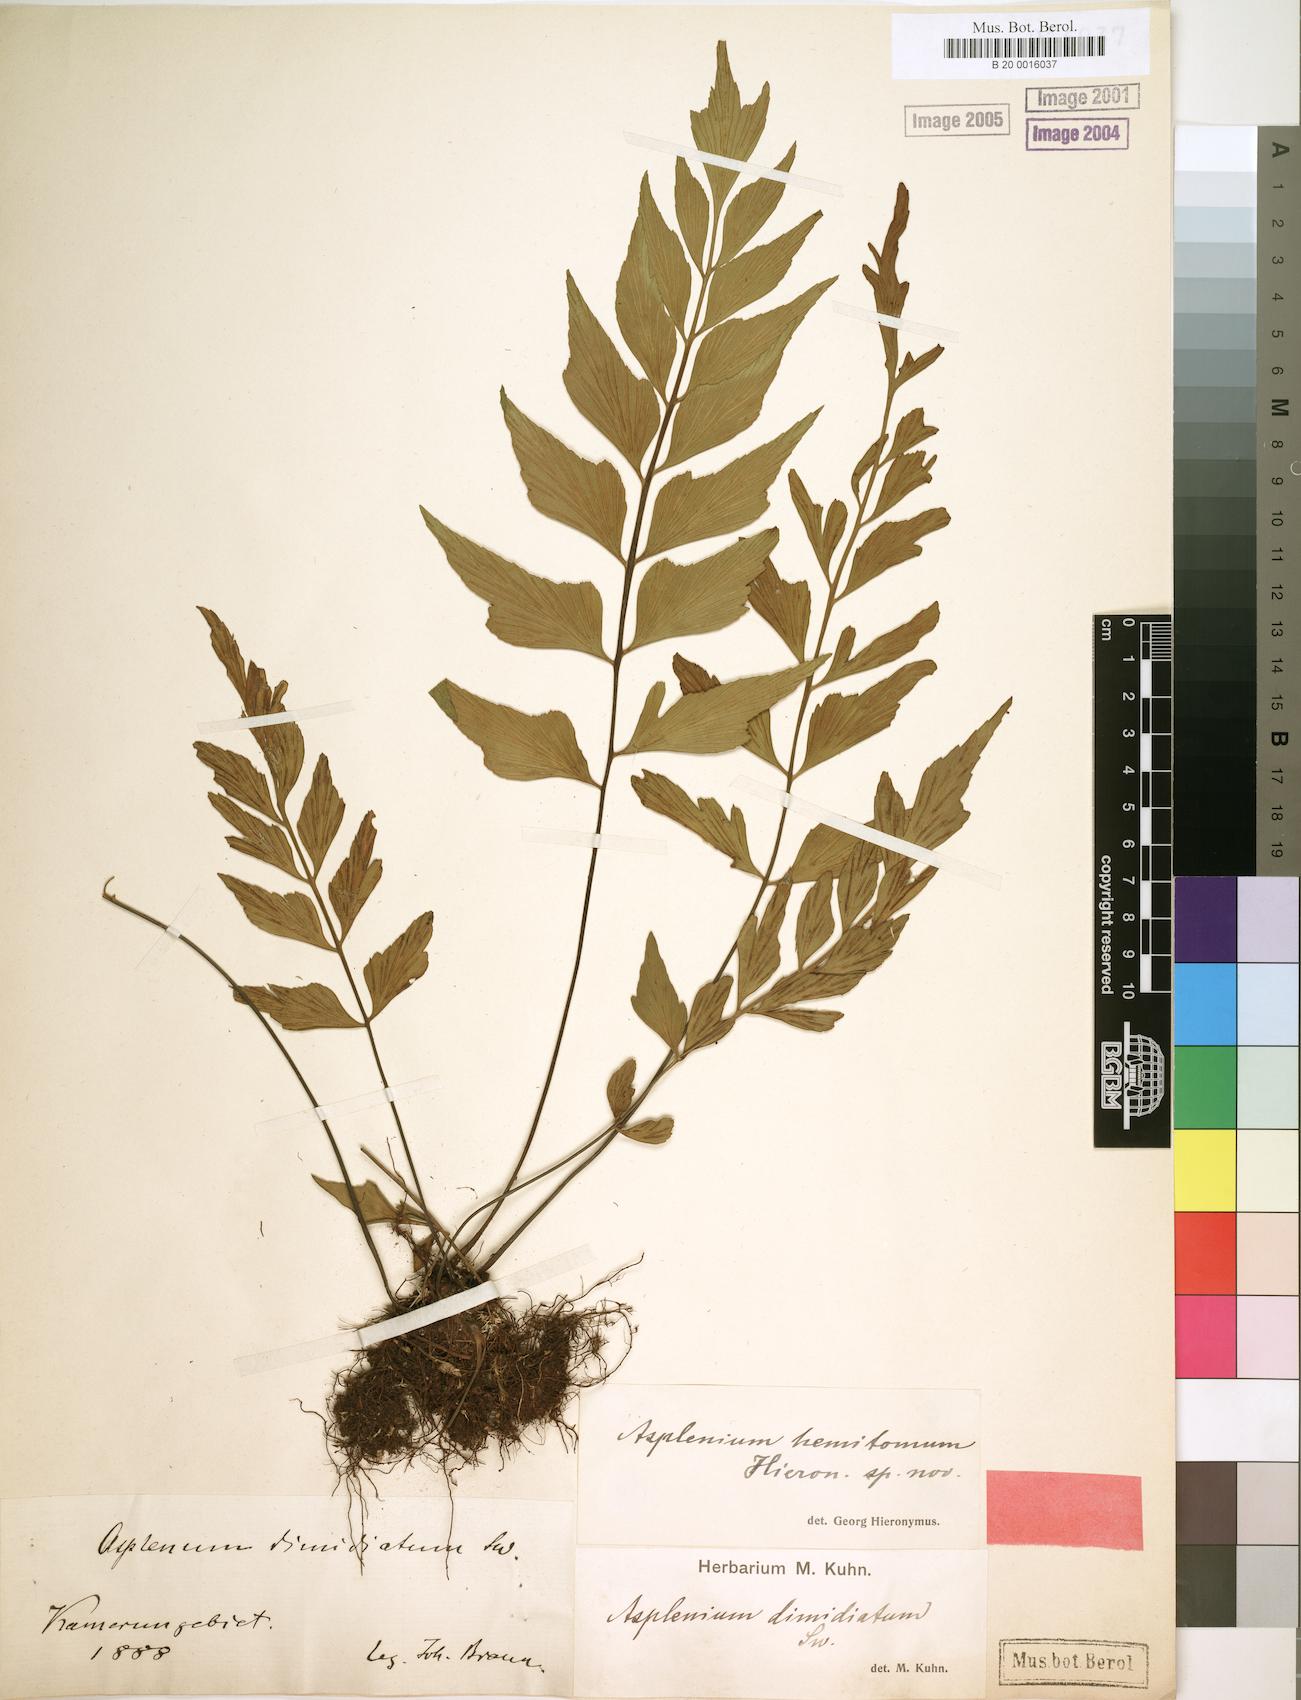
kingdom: Plantae
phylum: Tracheophyta
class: Polypodiopsida
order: Polypodiales
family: Aspleniaceae
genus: Asplenium
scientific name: Asplenium hemitomum
